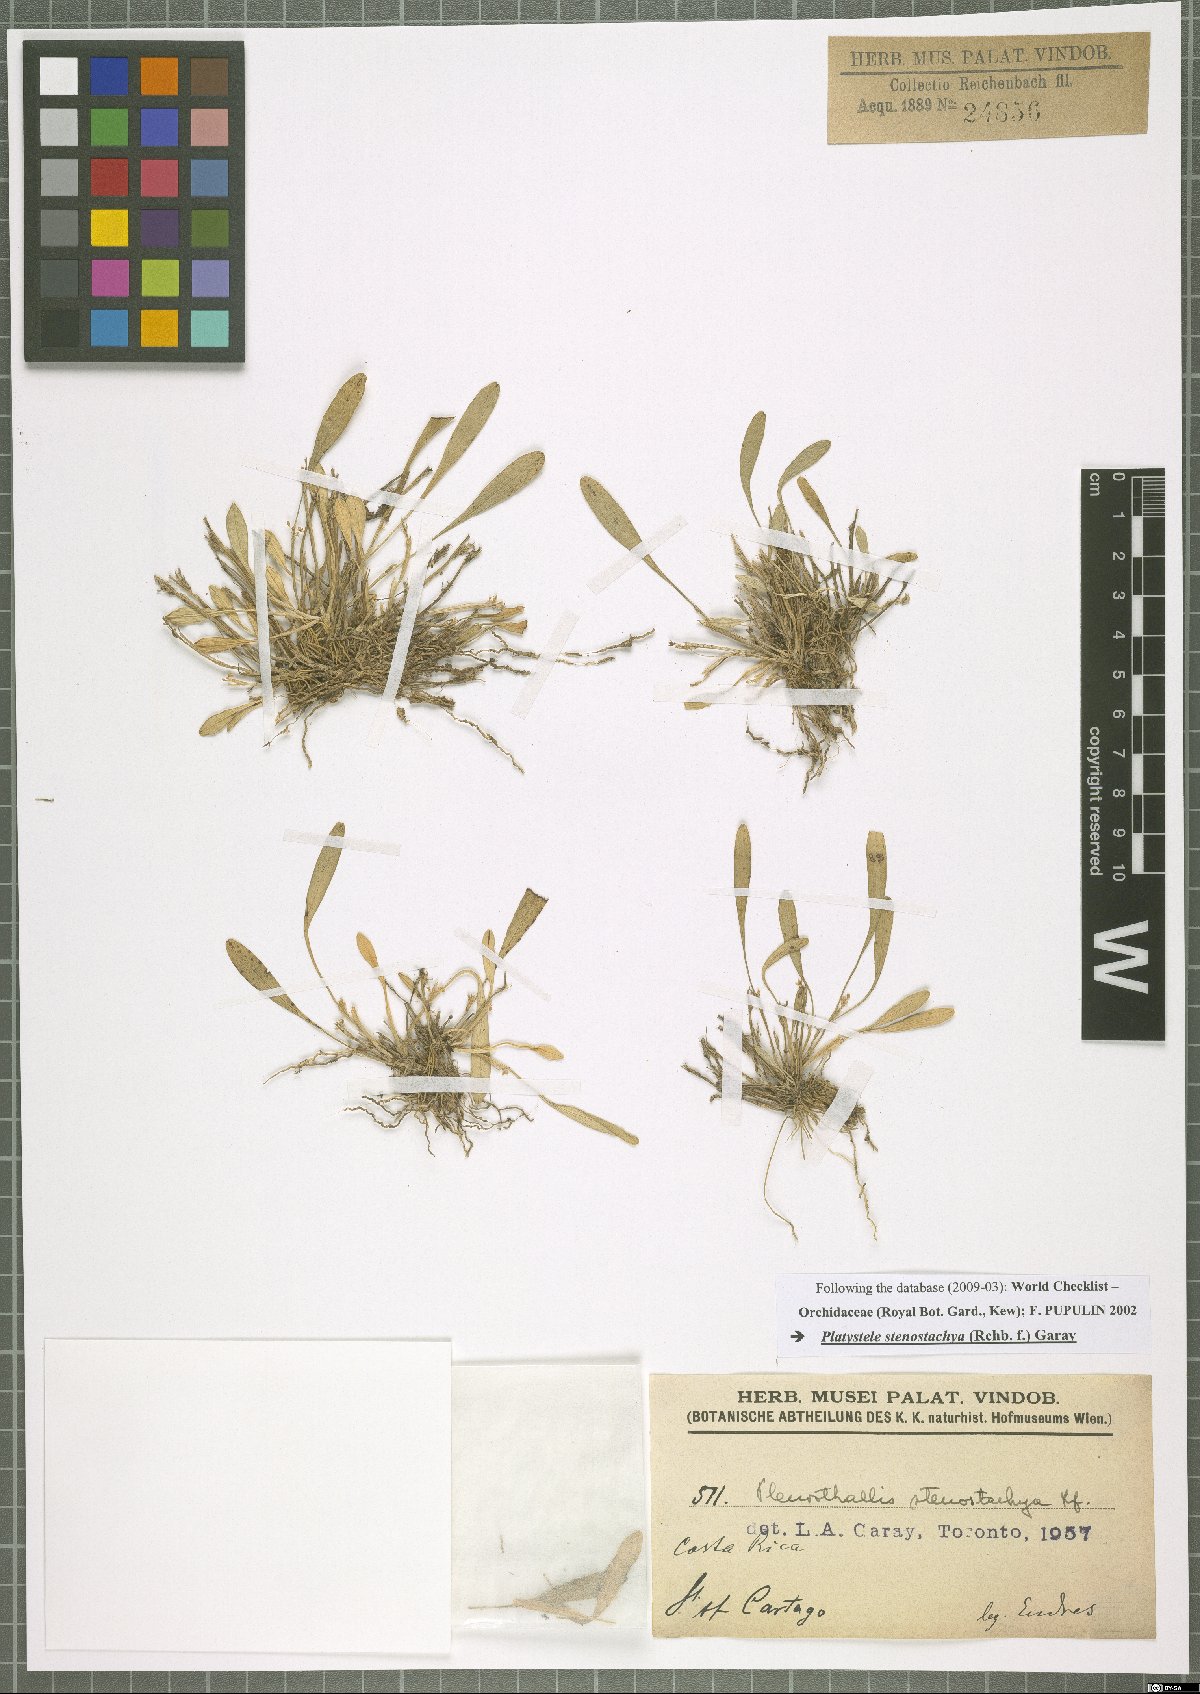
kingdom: Plantae
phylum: Tracheophyta
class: Liliopsida
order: Asparagales
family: Orchidaceae
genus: Platystele
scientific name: Platystele stenostachya
